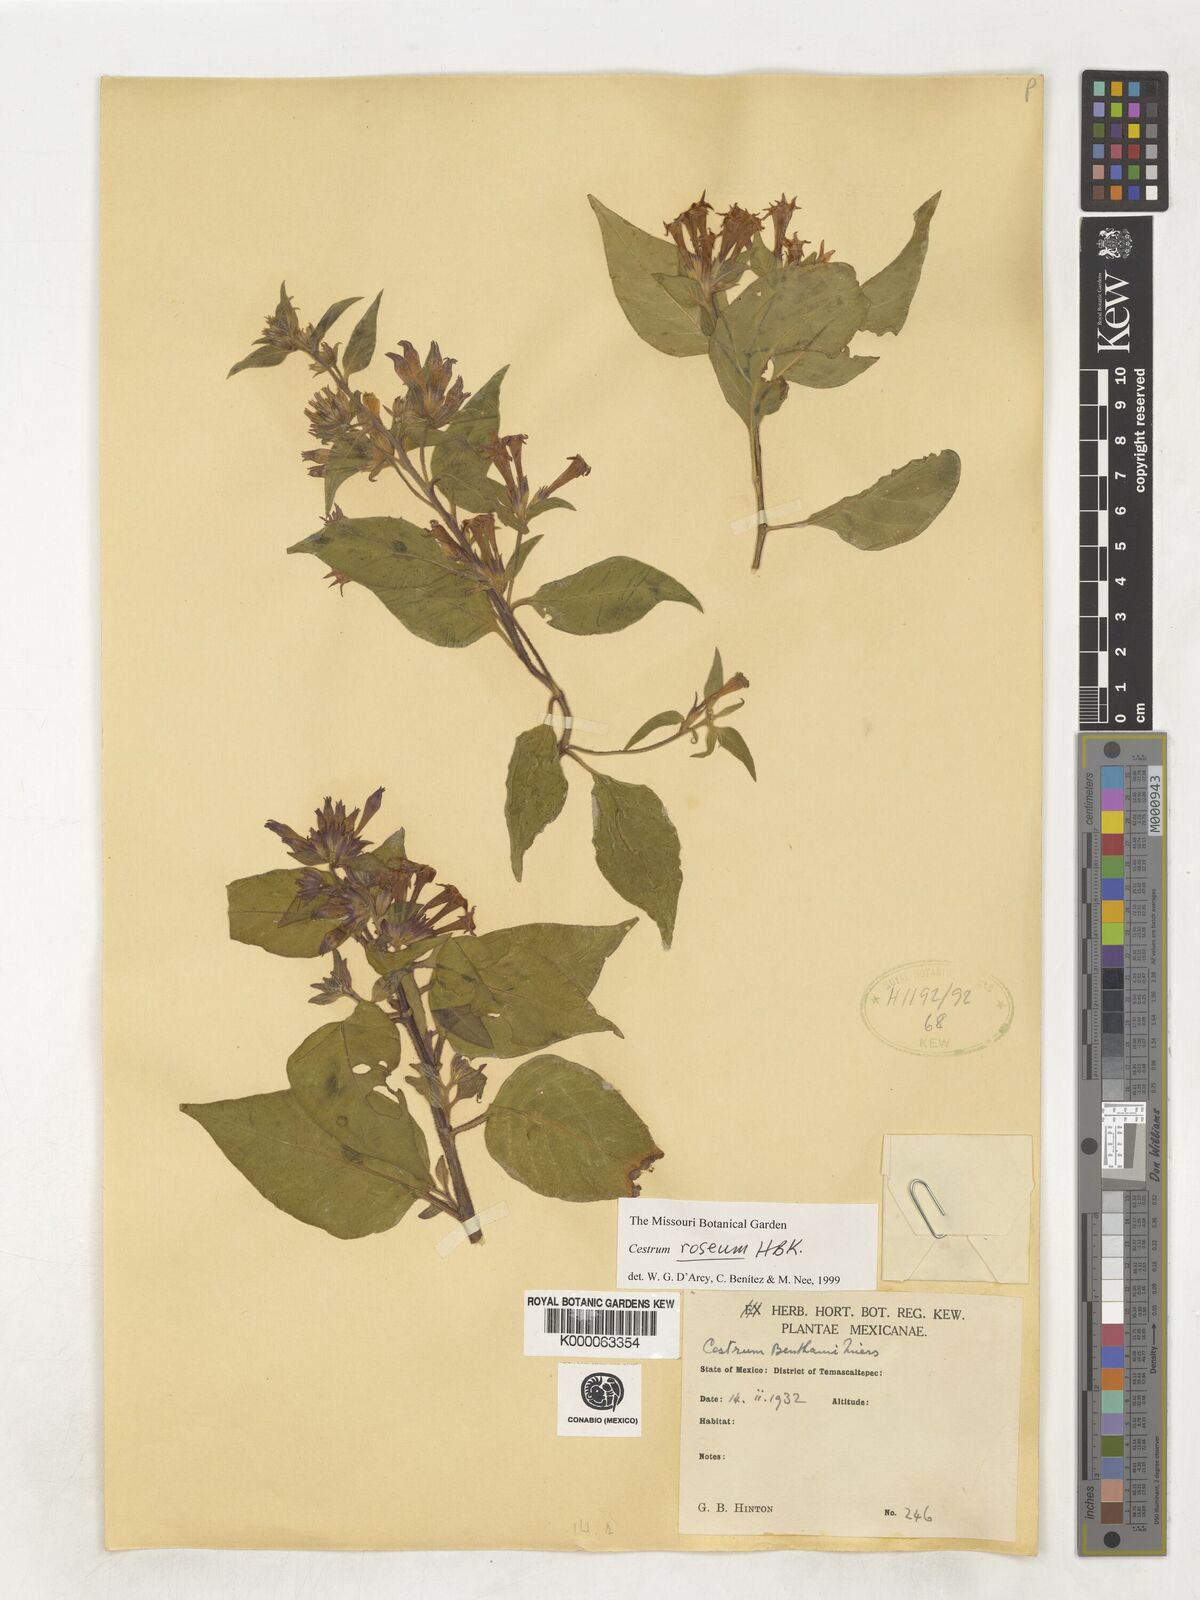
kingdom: Plantae
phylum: Tracheophyta
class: Magnoliopsida
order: Solanales
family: Solanaceae
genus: Cestrum
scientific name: Cestrum
